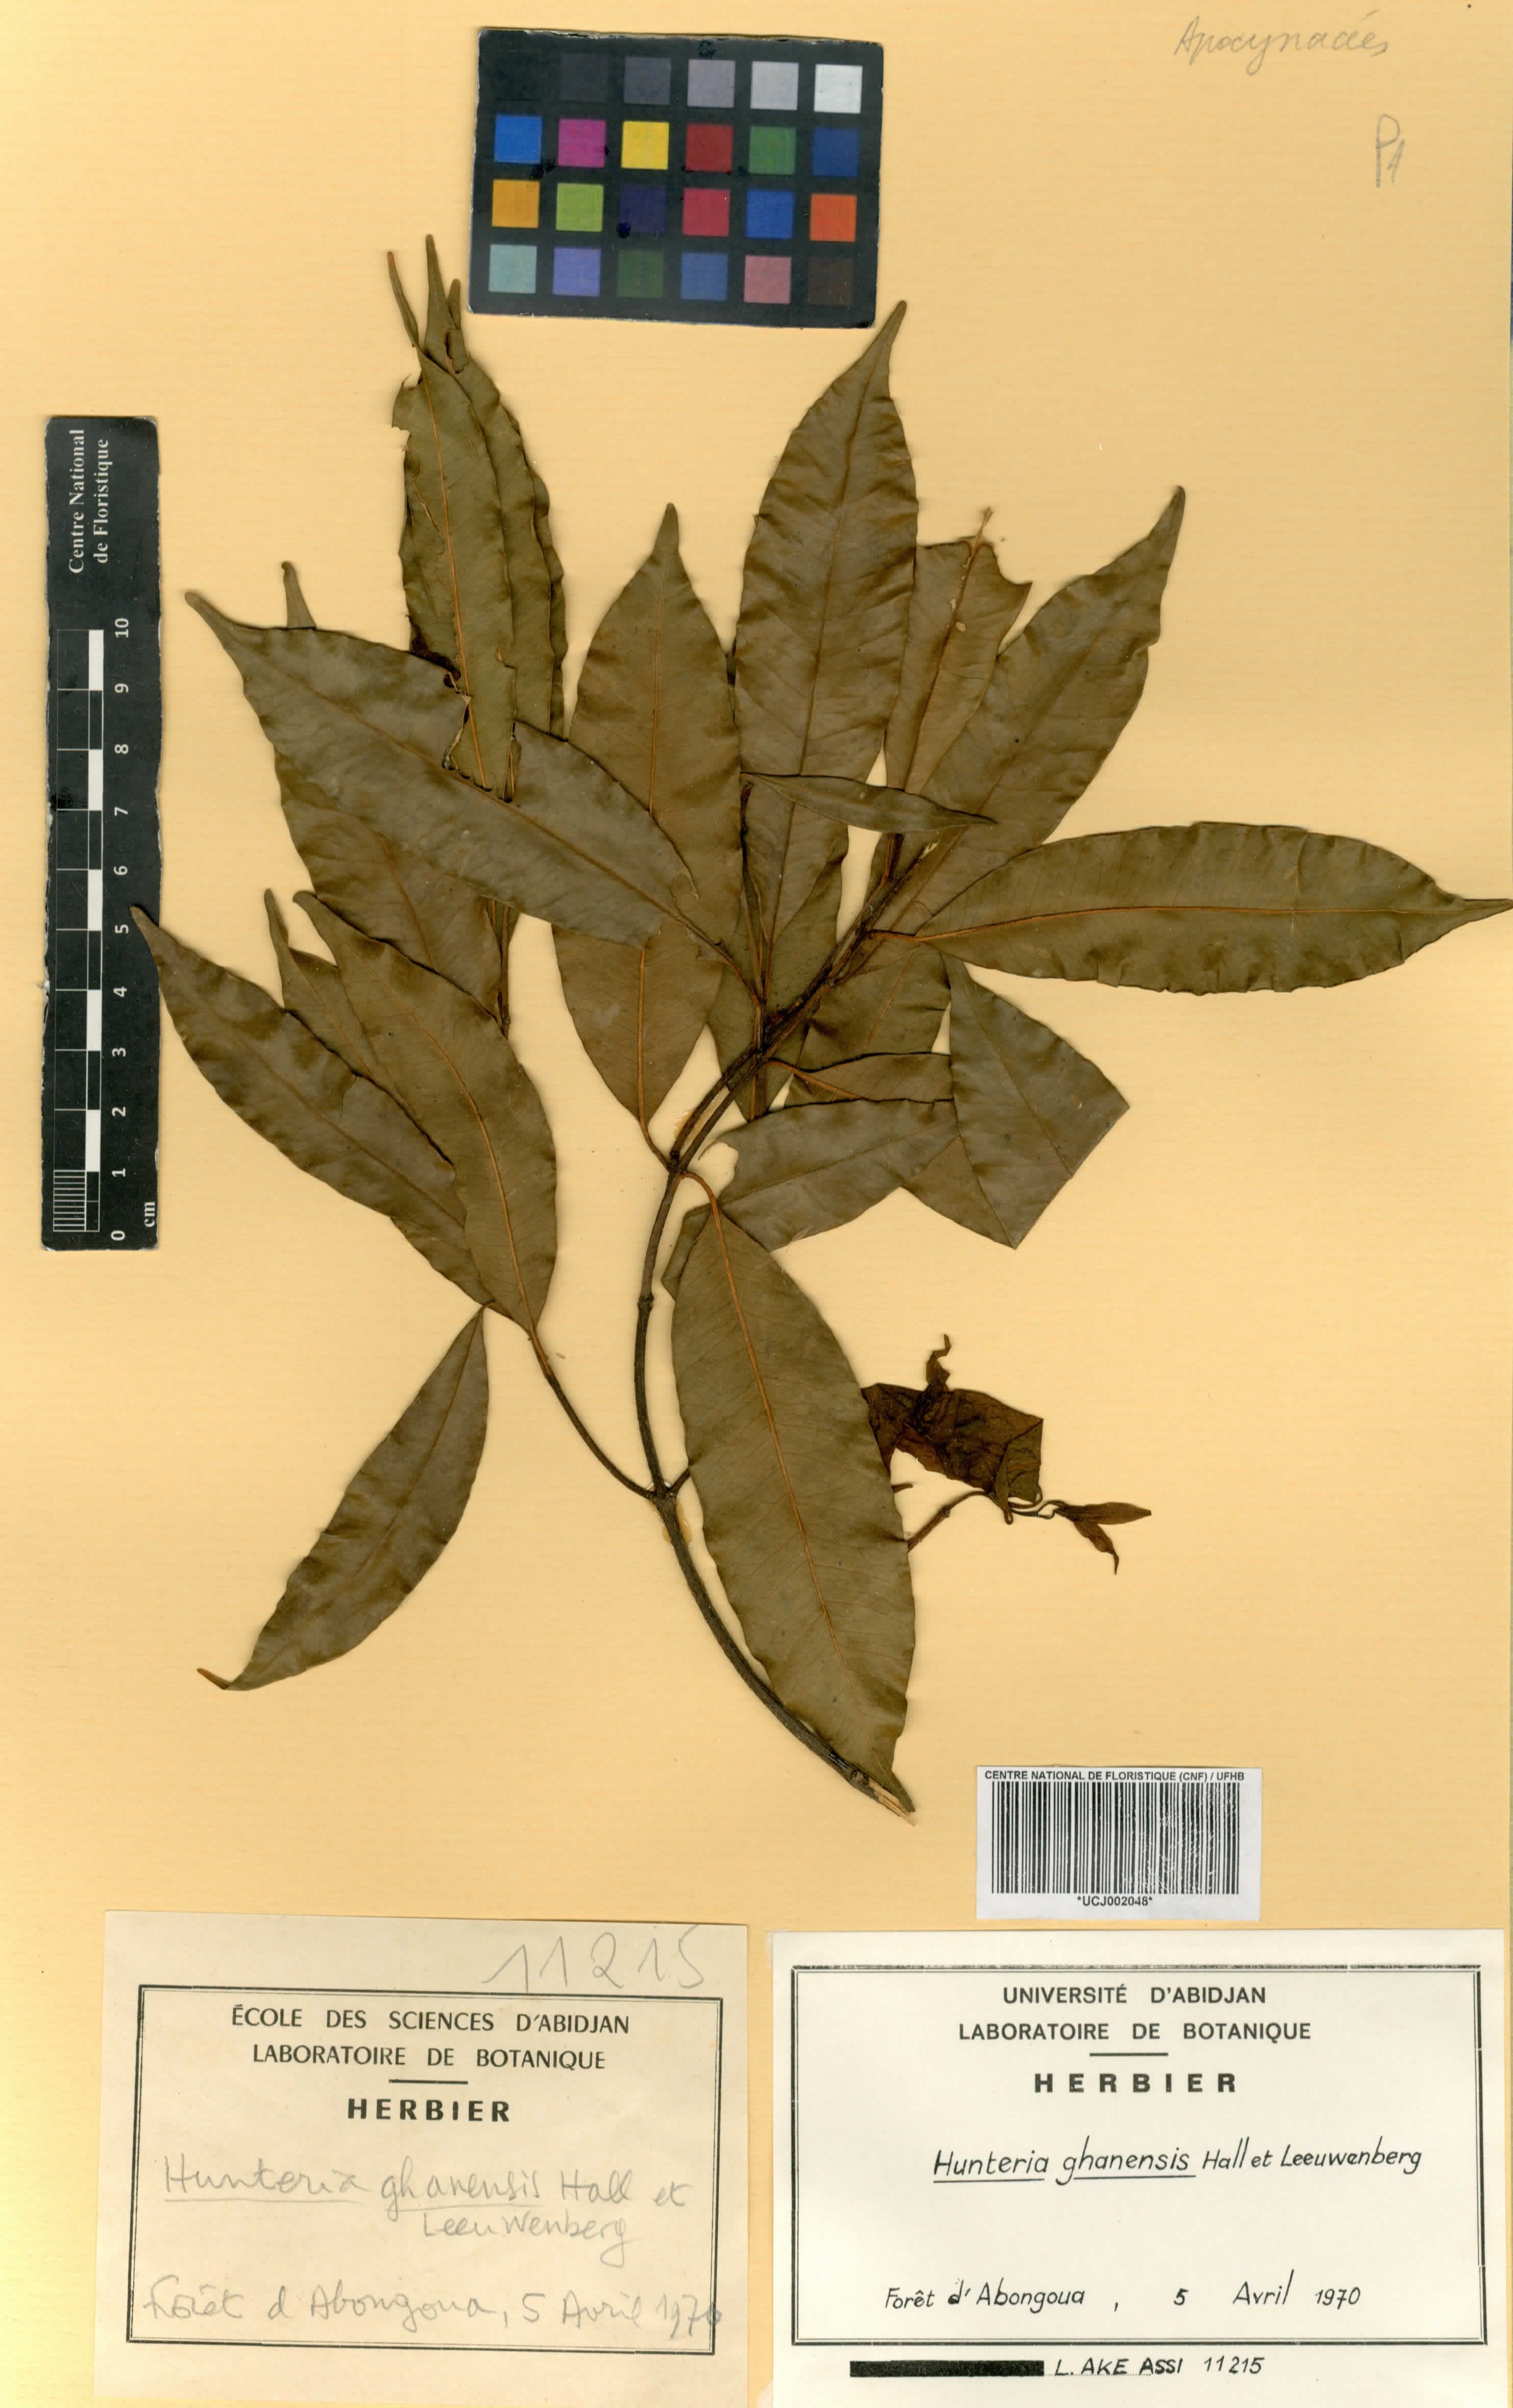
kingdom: Plantae
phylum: Tracheophyta
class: Magnoliopsida
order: Gentianales
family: Apocynaceae
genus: Hunteria
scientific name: Hunteria ghanensis
